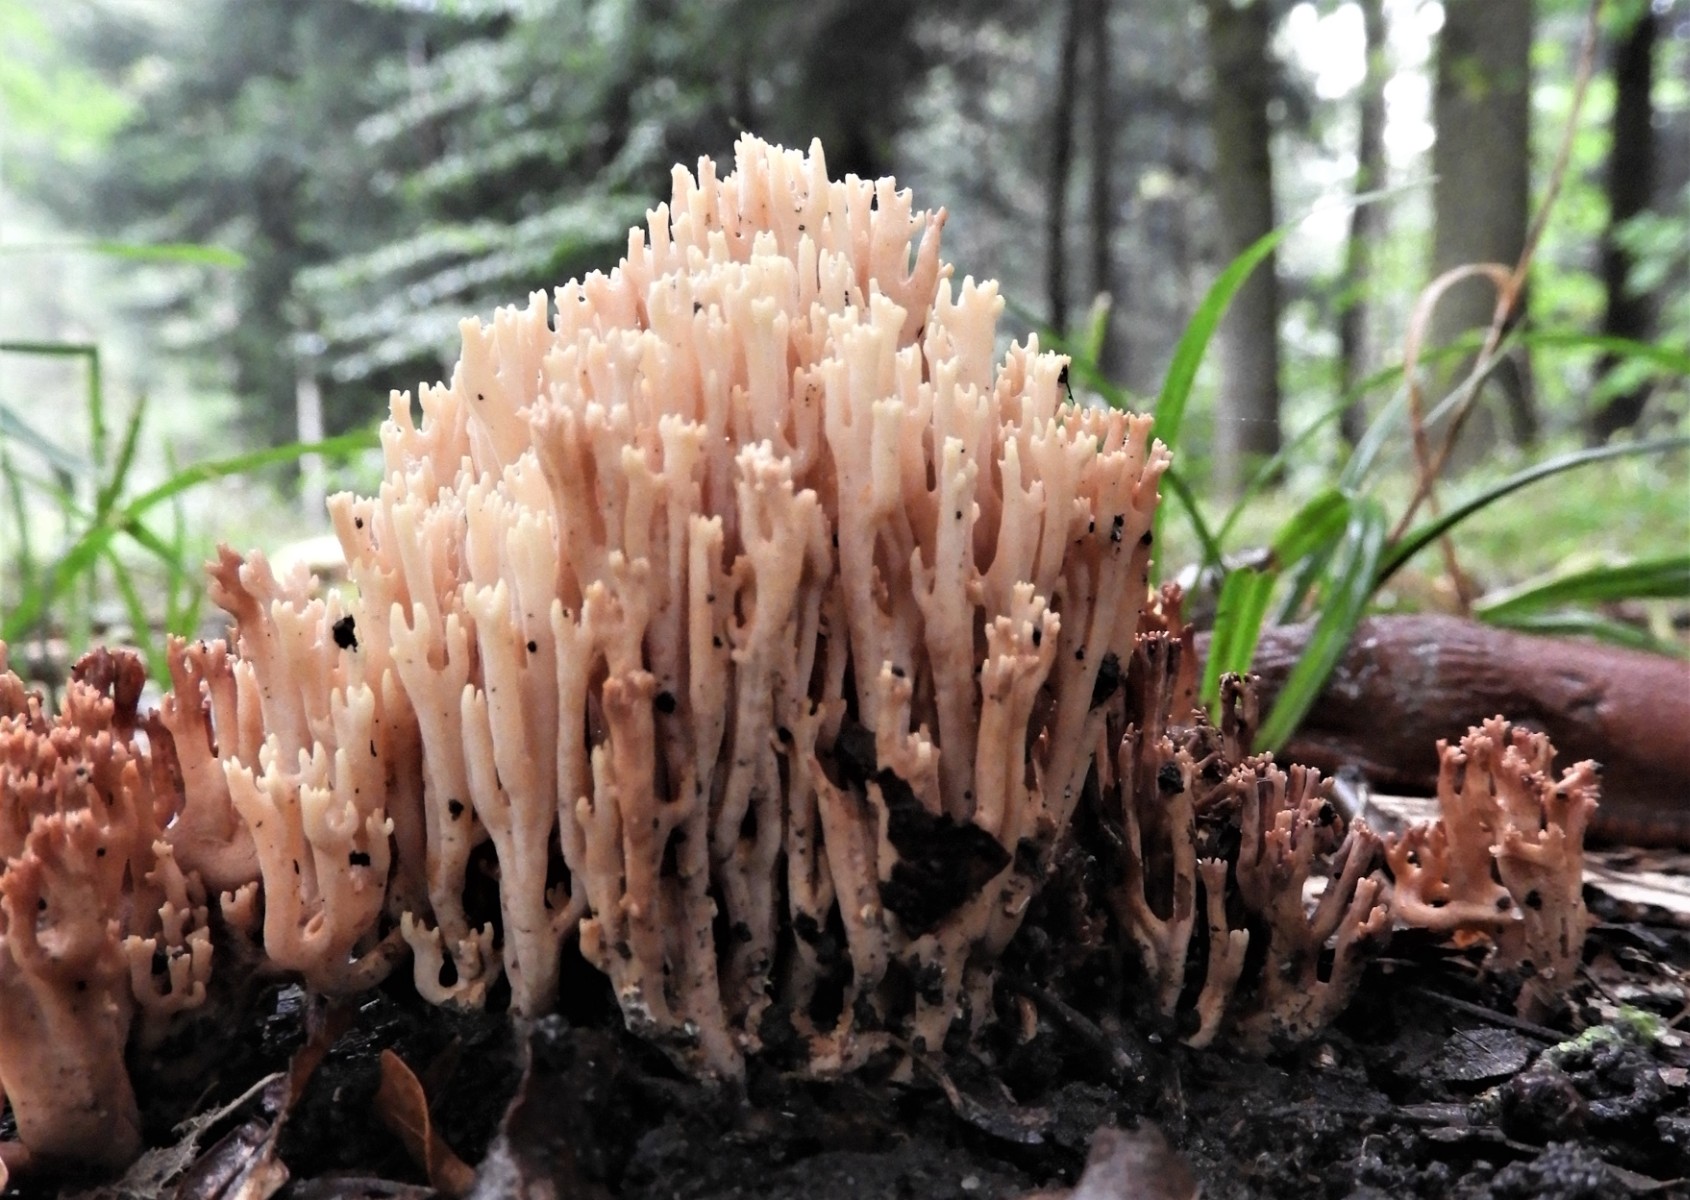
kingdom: Fungi
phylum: Basidiomycota
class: Agaricomycetes
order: Gomphales
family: Gomphaceae
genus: Ramaria
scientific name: Ramaria stricta
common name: rank koralsvamp
